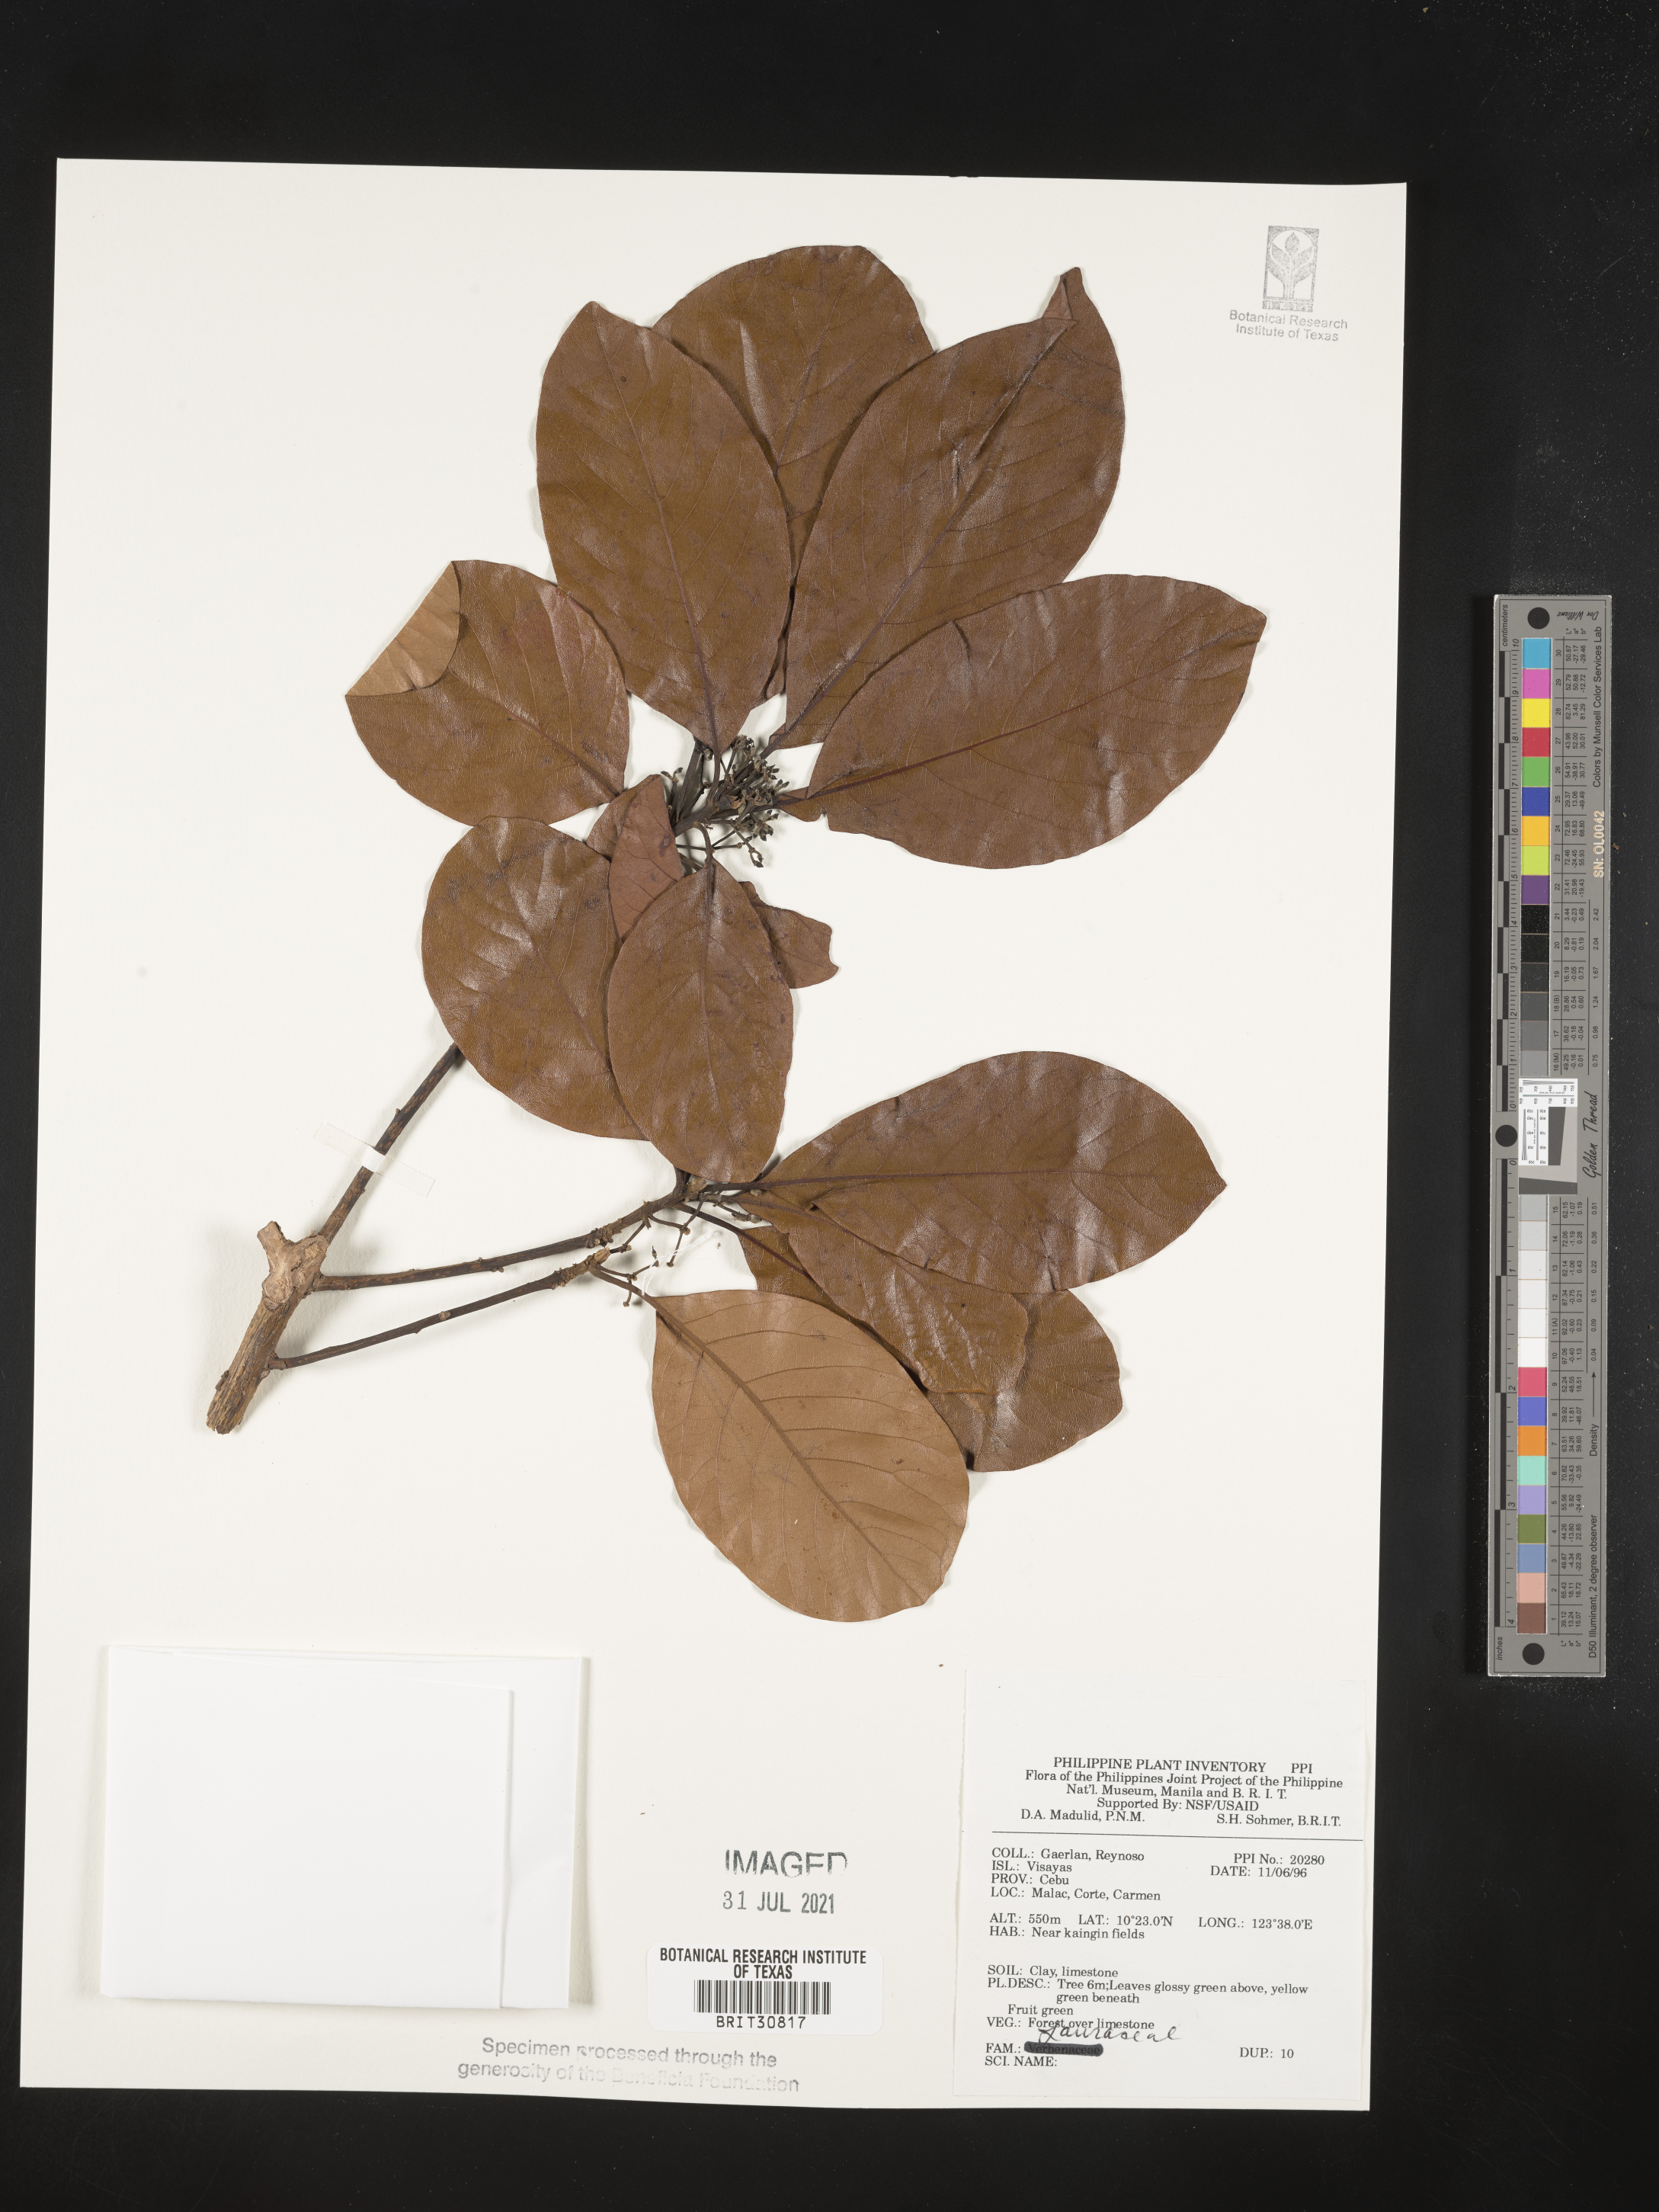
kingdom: Plantae
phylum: Tracheophyta
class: Magnoliopsida
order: Laurales
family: Lauraceae
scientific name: Lauraceae
